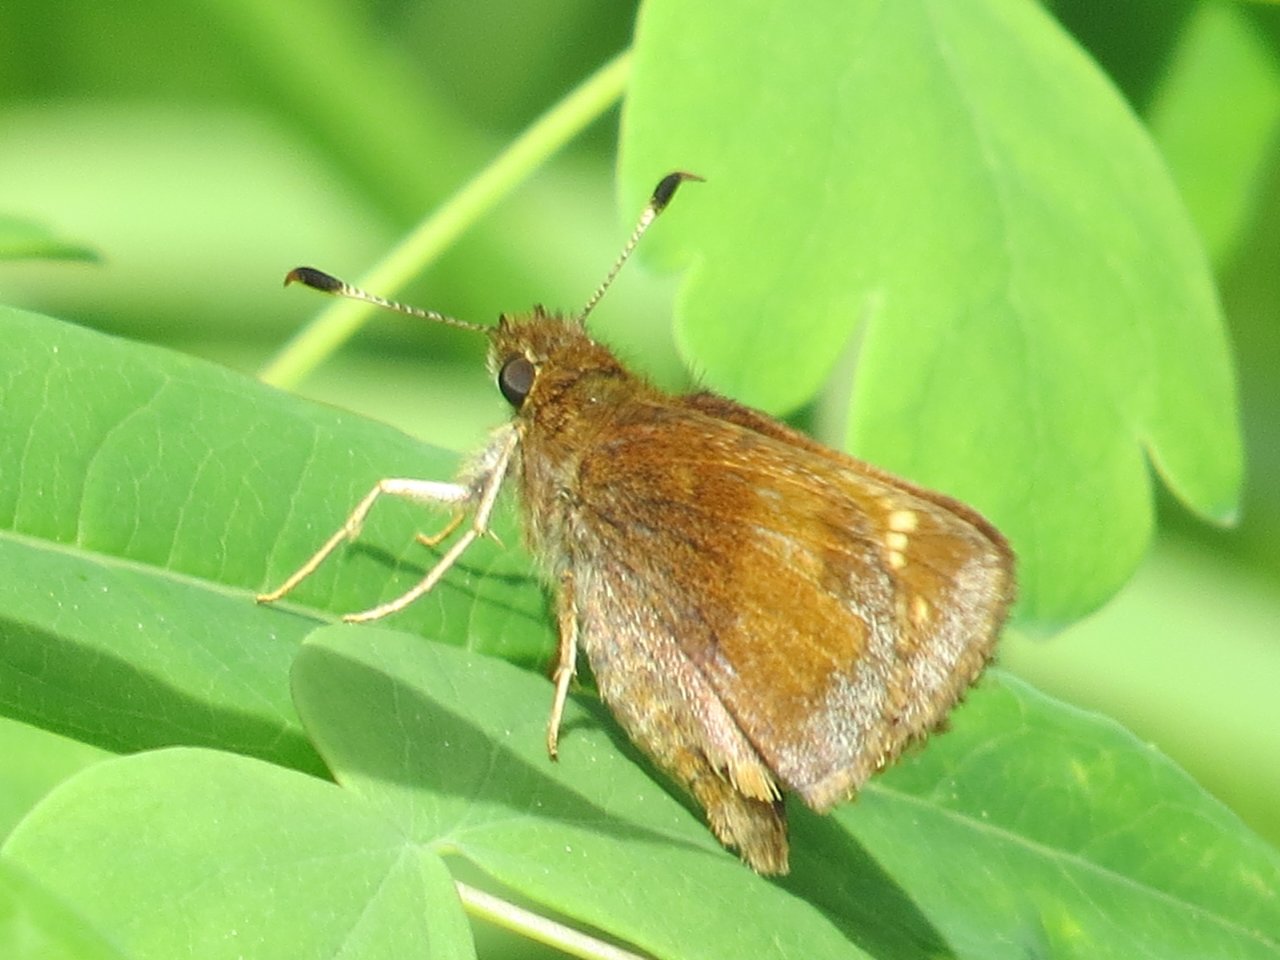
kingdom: Animalia
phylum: Arthropoda
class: Insecta
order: Lepidoptera
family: Hesperiidae
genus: Lon
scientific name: Lon hobomok
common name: Hobomok Skipper
